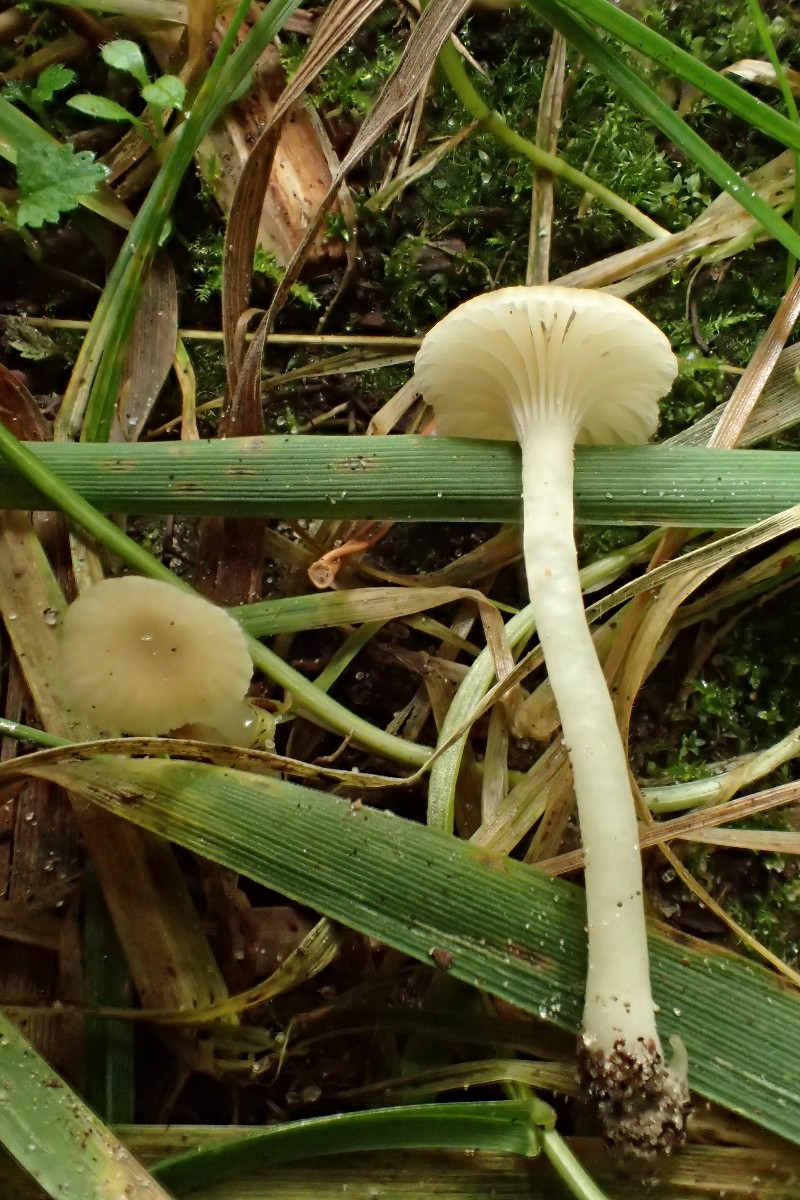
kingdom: Fungi
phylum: Basidiomycota
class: Agaricomycetes
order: Agaricales
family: Hygrophoraceae
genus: Cuphophyllus
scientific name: Cuphophyllus
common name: vokshat
